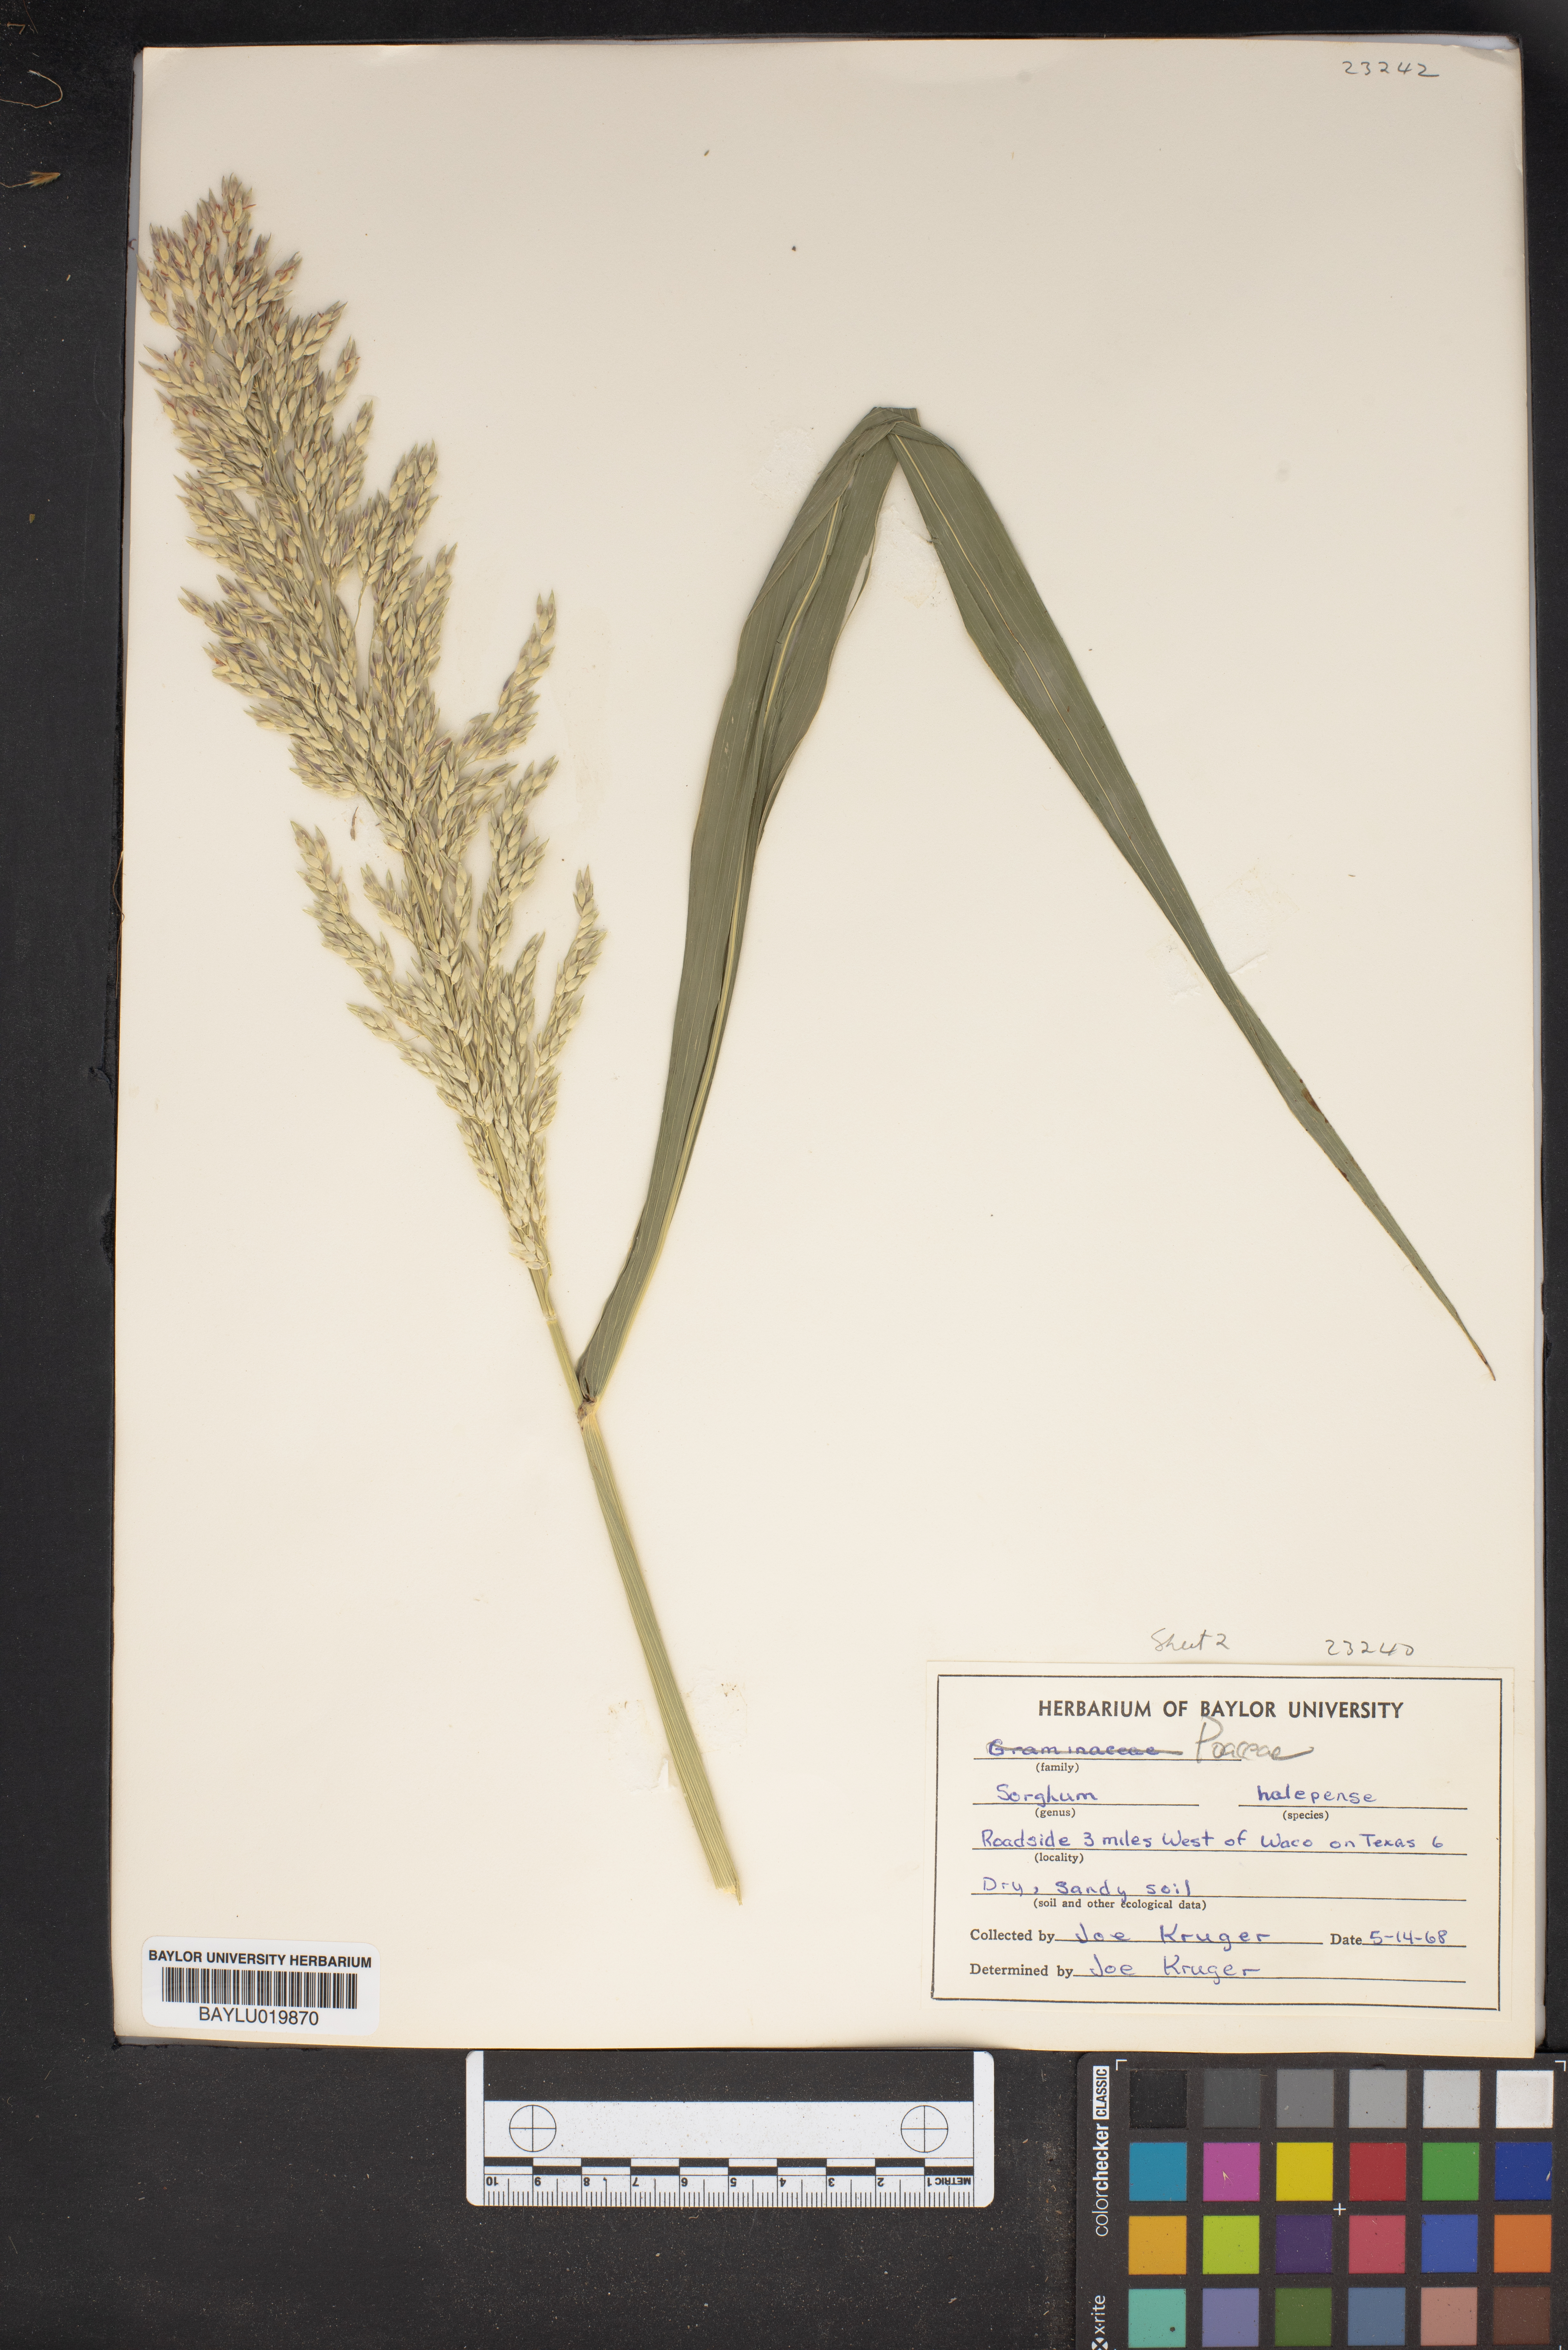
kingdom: Plantae
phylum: Tracheophyta
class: Liliopsida
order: Poales
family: Poaceae
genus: Sorghum
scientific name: Sorghum halepense
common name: Johnson-grass
